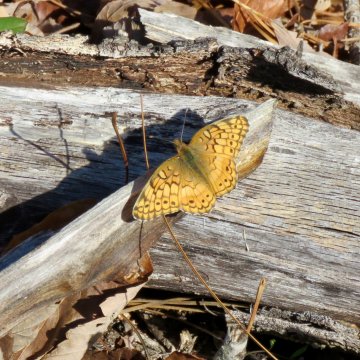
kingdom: Animalia
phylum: Arthropoda
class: Insecta
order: Lepidoptera
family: Nymphalidae
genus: Euptoieta
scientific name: Euptoieta claudia
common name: Variegated Fritillary
